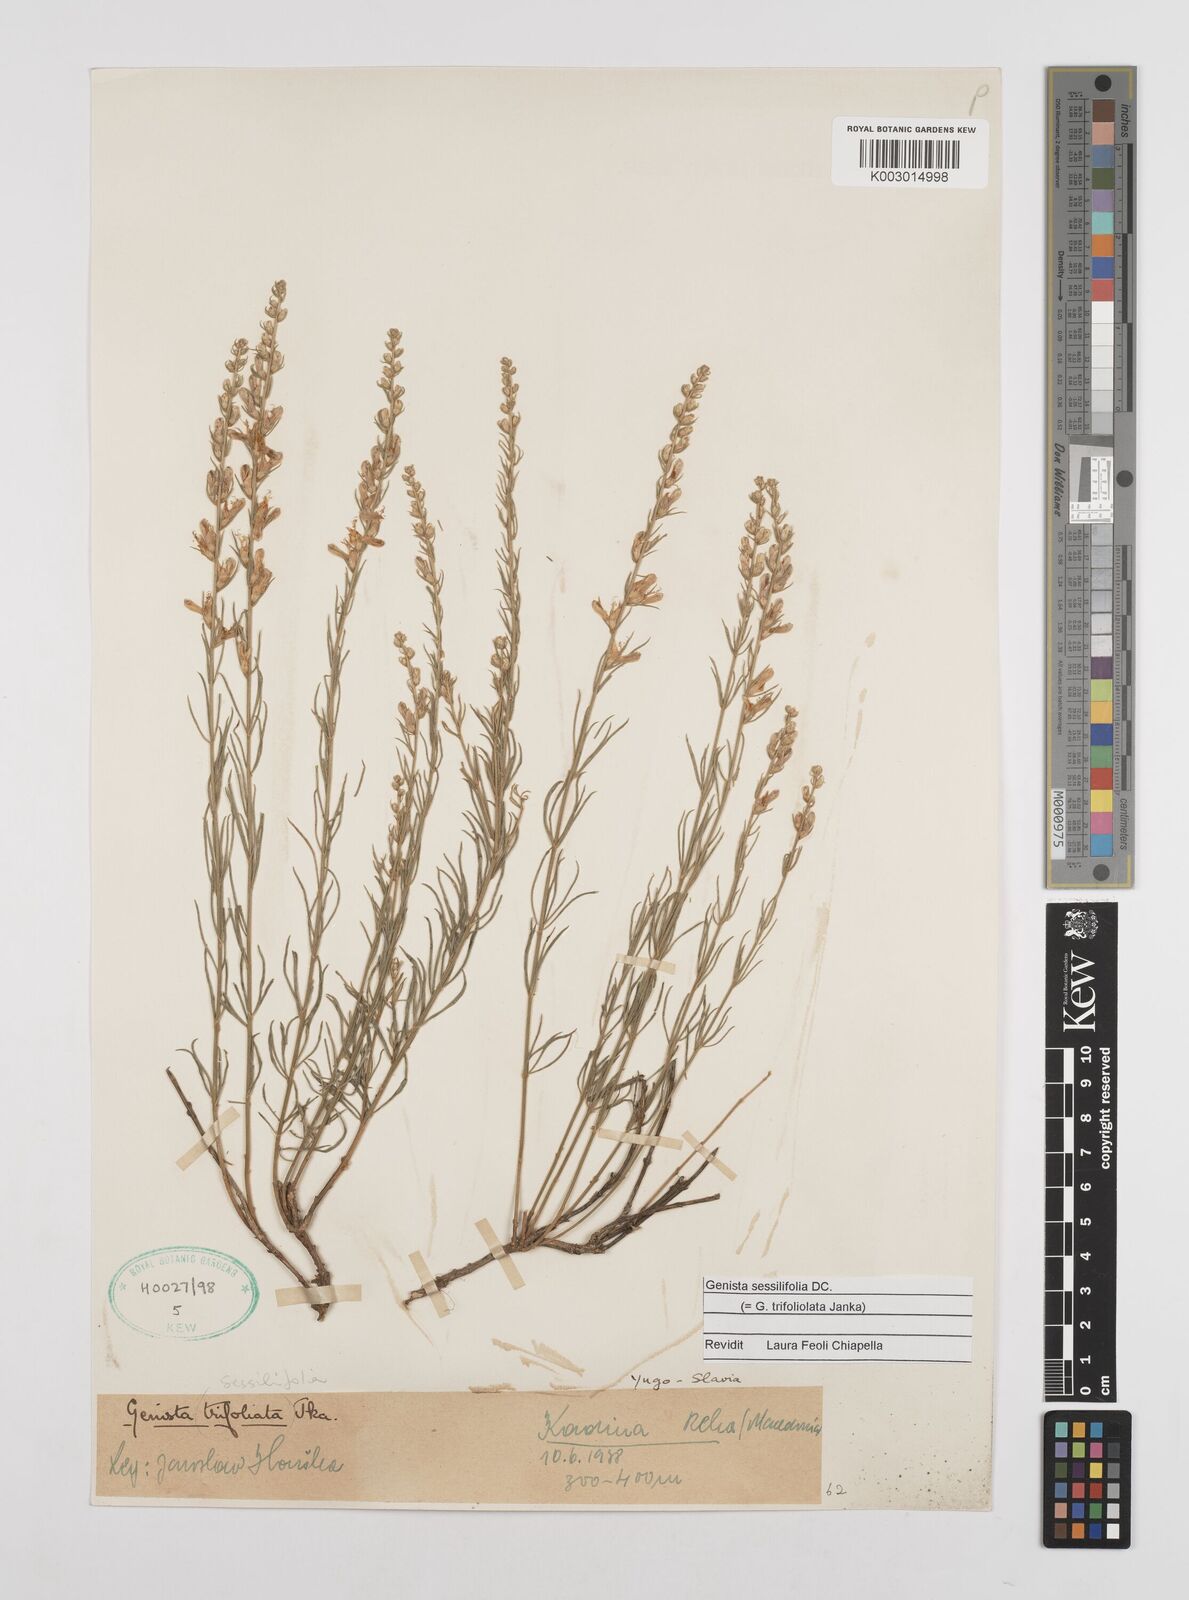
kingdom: Plantae
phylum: Tracheophyta
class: Magnoliopsida
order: Fabales
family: Fabaceae
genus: Genista
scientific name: Genista sessilifolia
